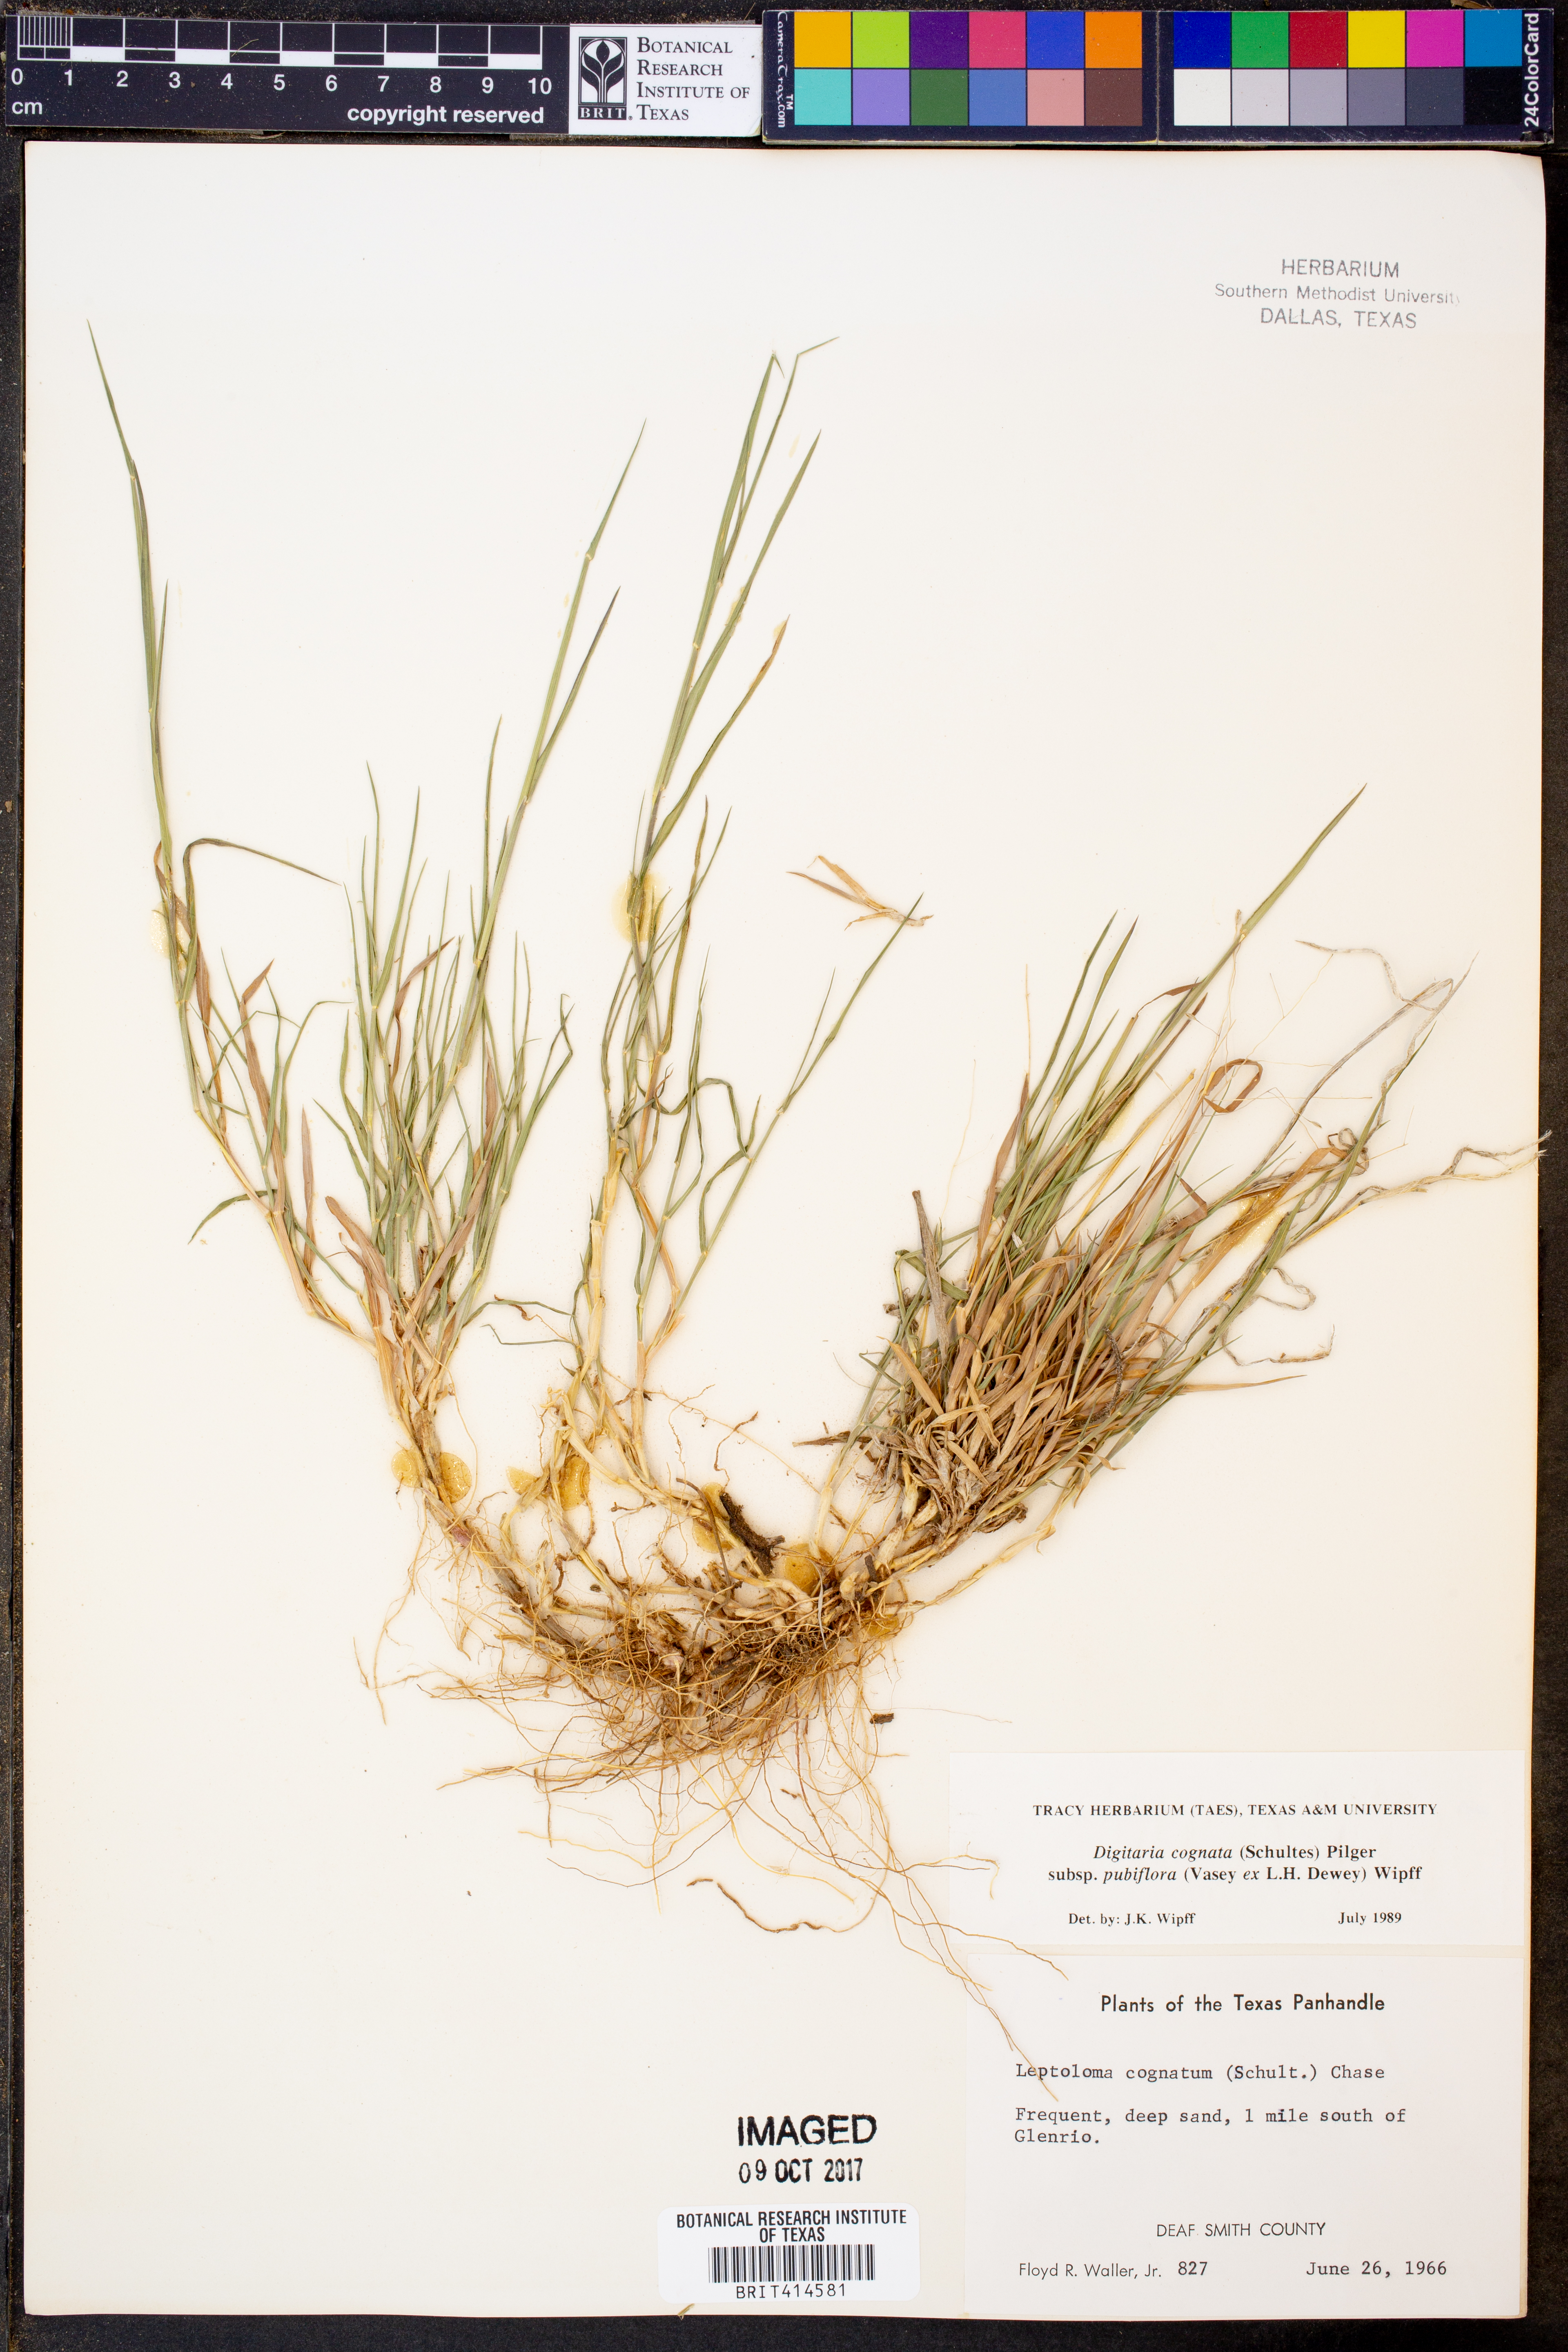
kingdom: Plantae
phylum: Tracheophyta
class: Liliopsida
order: Poales
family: Poaceae
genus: Digitaria
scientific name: Digitaria cognata
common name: Fall witchgrass
